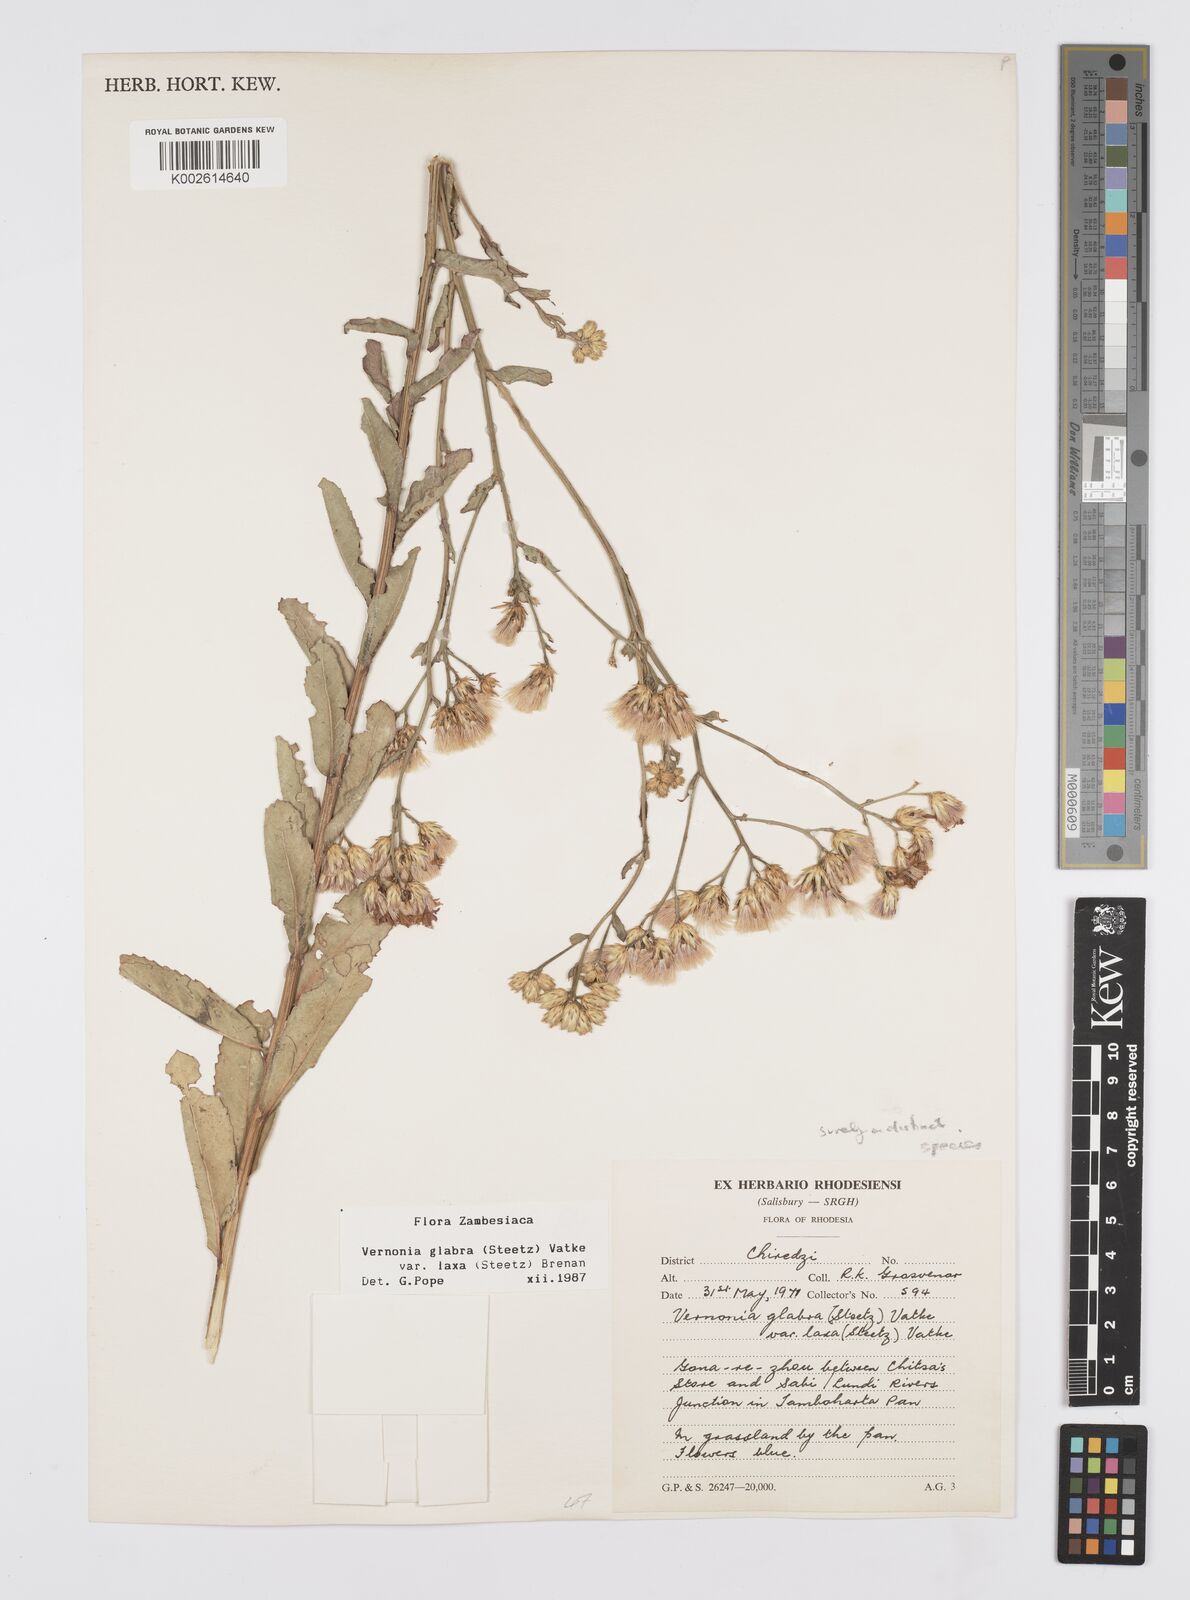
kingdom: Plantae
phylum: Tracheophyta
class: Magnoliopsida
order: Asterales
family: Asteraceae
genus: Linzia
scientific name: Linzia glabra
